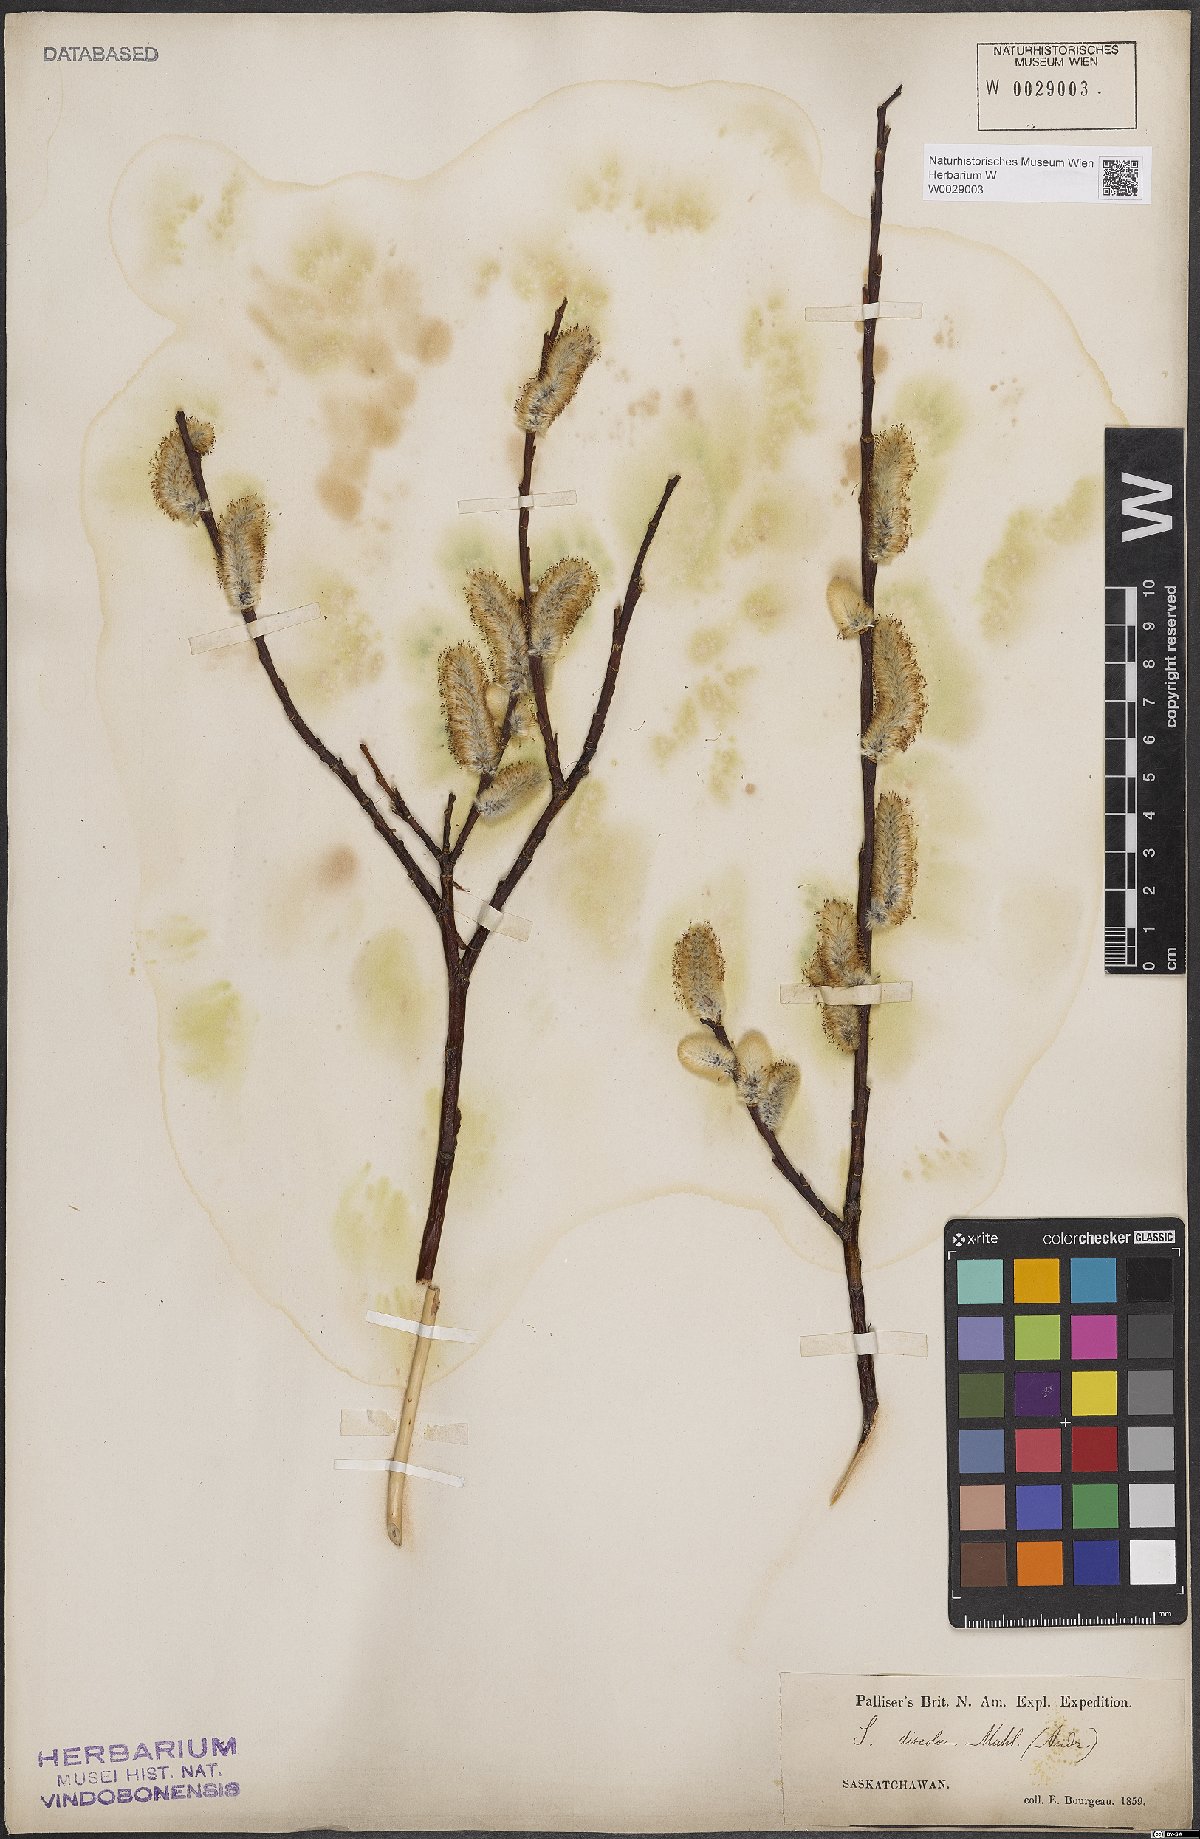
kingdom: Plantae
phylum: Tracheophyta
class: Magnoliopsida
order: Malpighiales
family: Salicaceae
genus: Salix
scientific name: Salix discolor
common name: Glaucous willow
